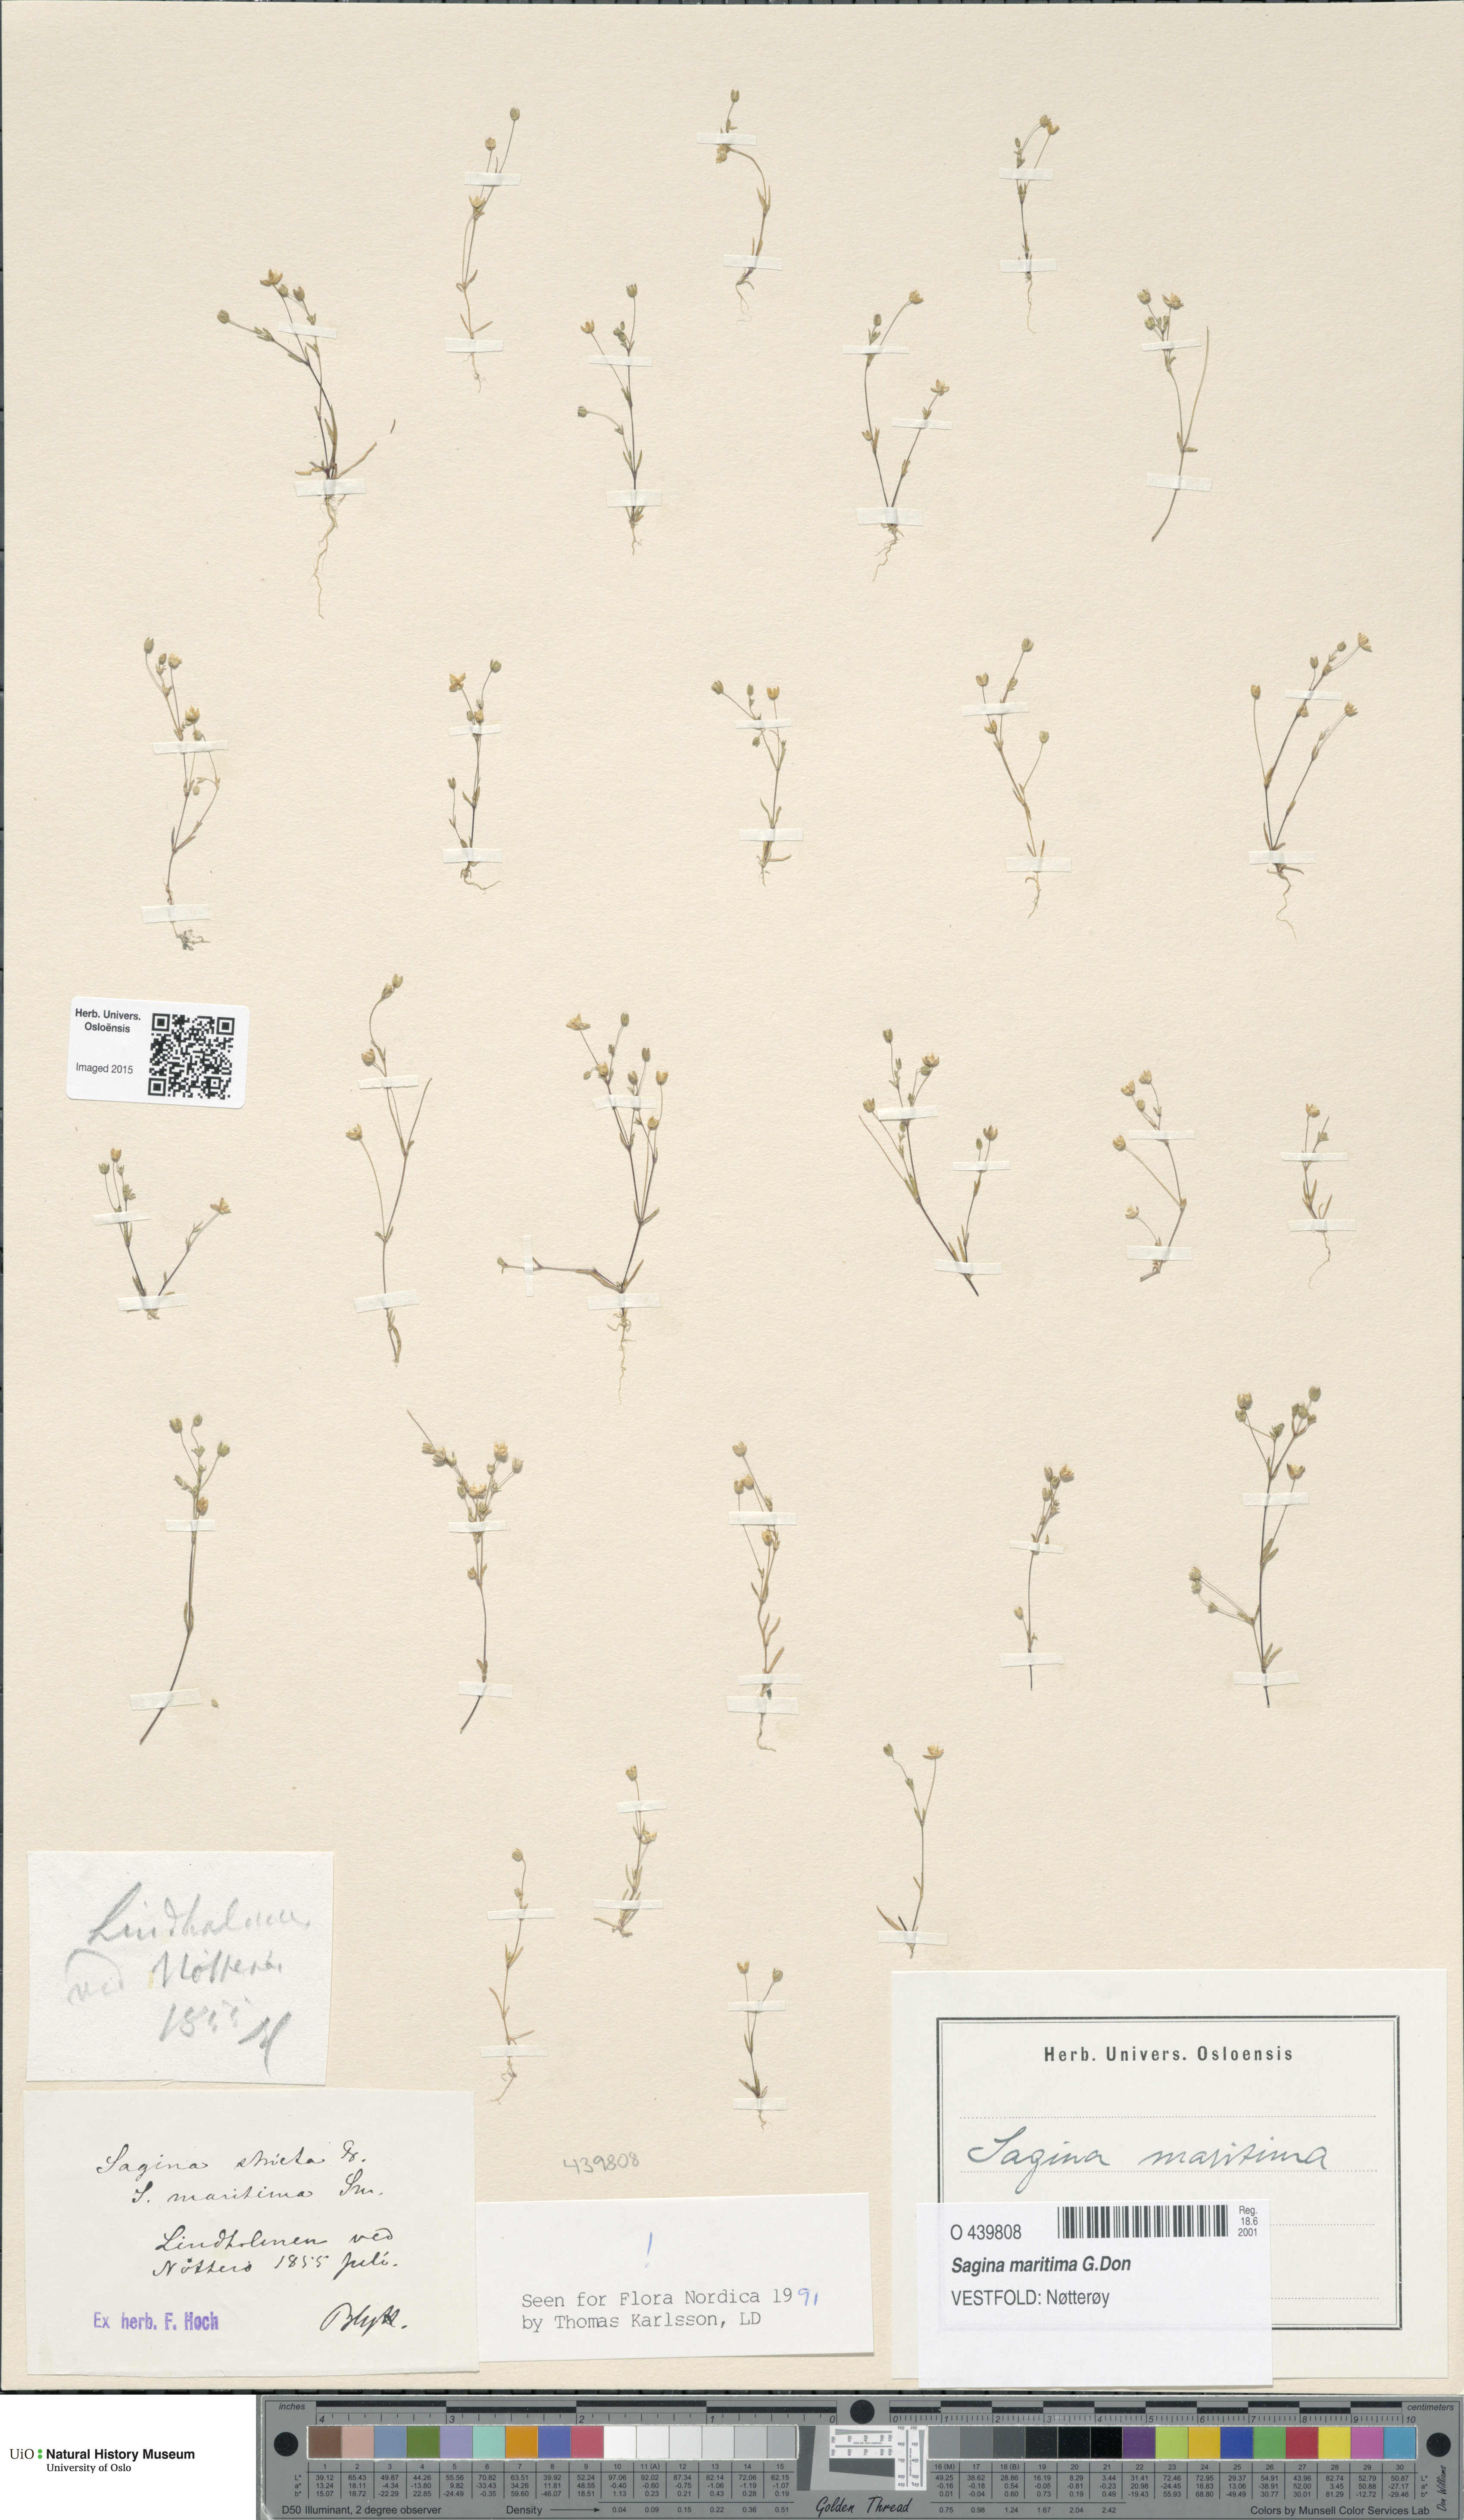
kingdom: Plantae
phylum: Tracheophyta
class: Magnoliopsida
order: Caryophyllales
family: Caryophyllaceae
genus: Sagina
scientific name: Sagina maritima
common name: Sea pearlwort
